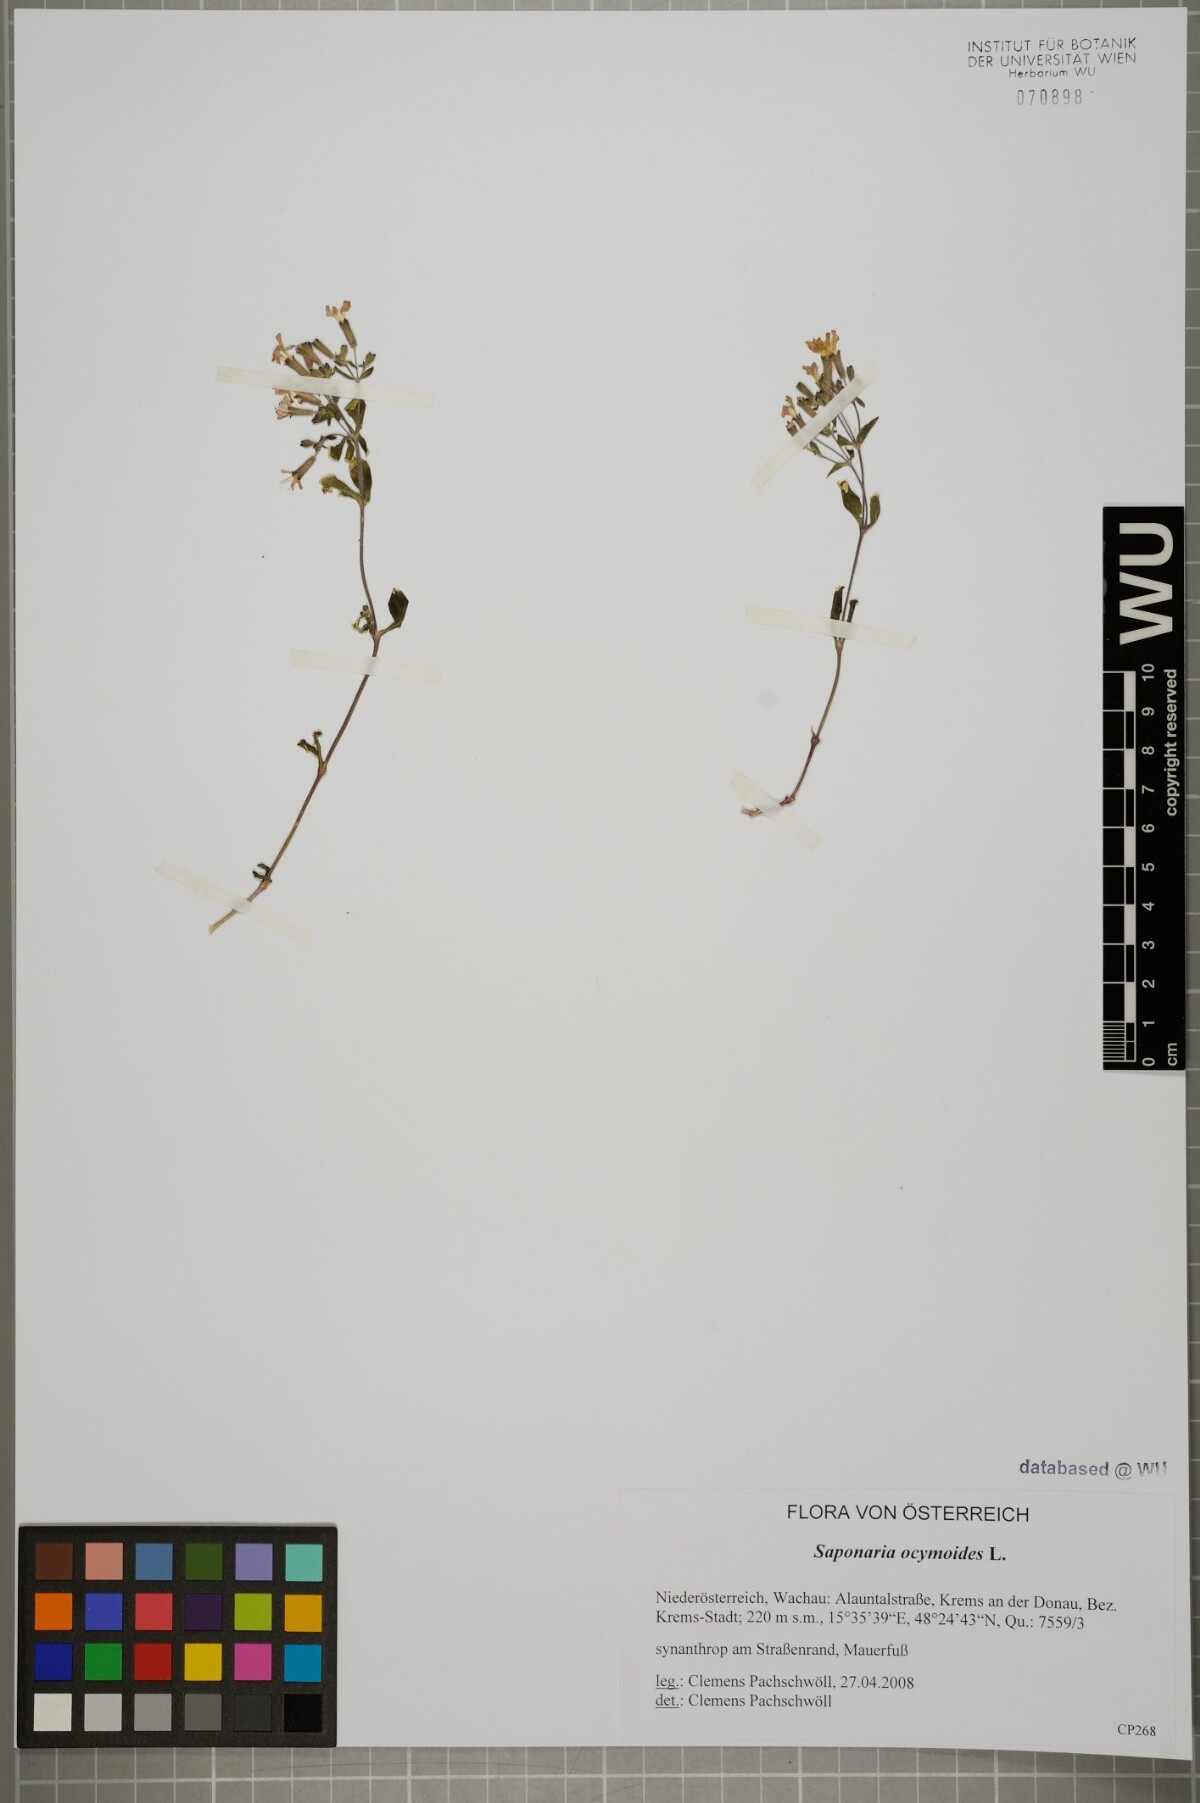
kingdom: Plantae
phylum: Tracheophyta
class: Magnoliopsida
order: Caryophyllales
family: Caryophyllaceae
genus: Saponaria
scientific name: Saponaria ocymoides
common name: Rock soapwort
